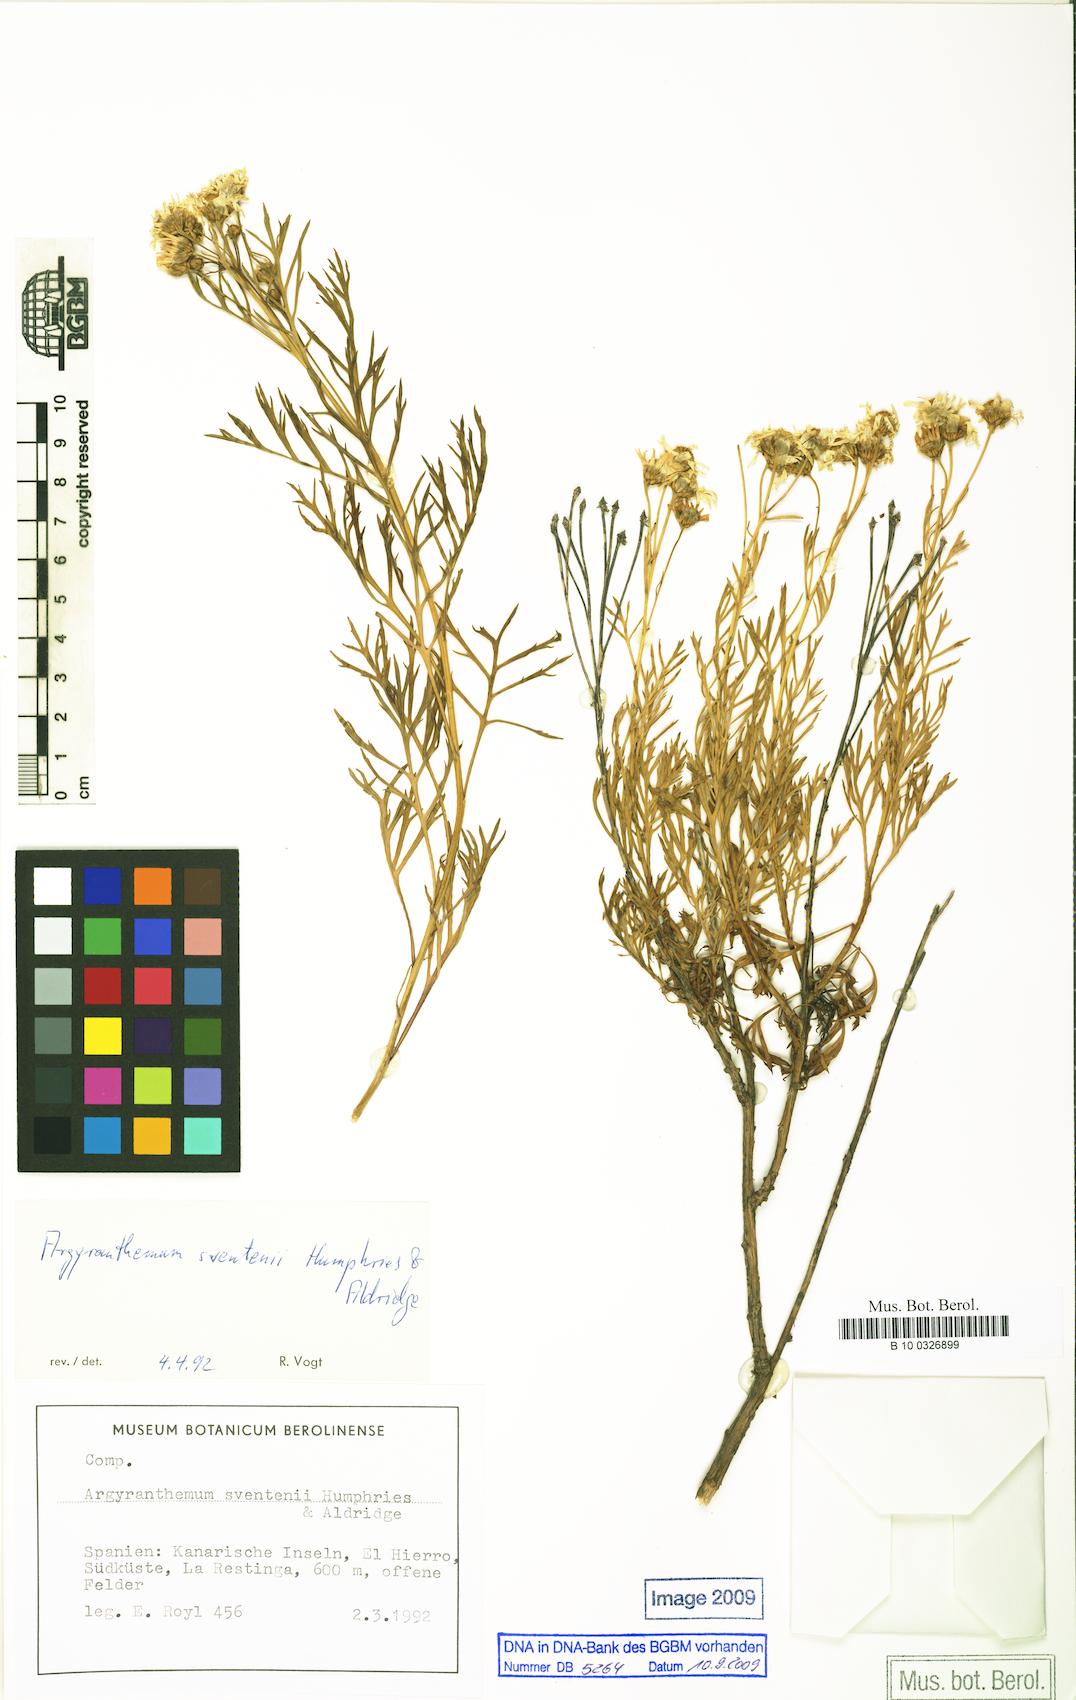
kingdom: Plantae
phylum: Tracheophyta
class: Magnoliopsida
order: Asterales
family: Asteraceae
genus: Argyranthemum
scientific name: Argyranthemum sventenii
